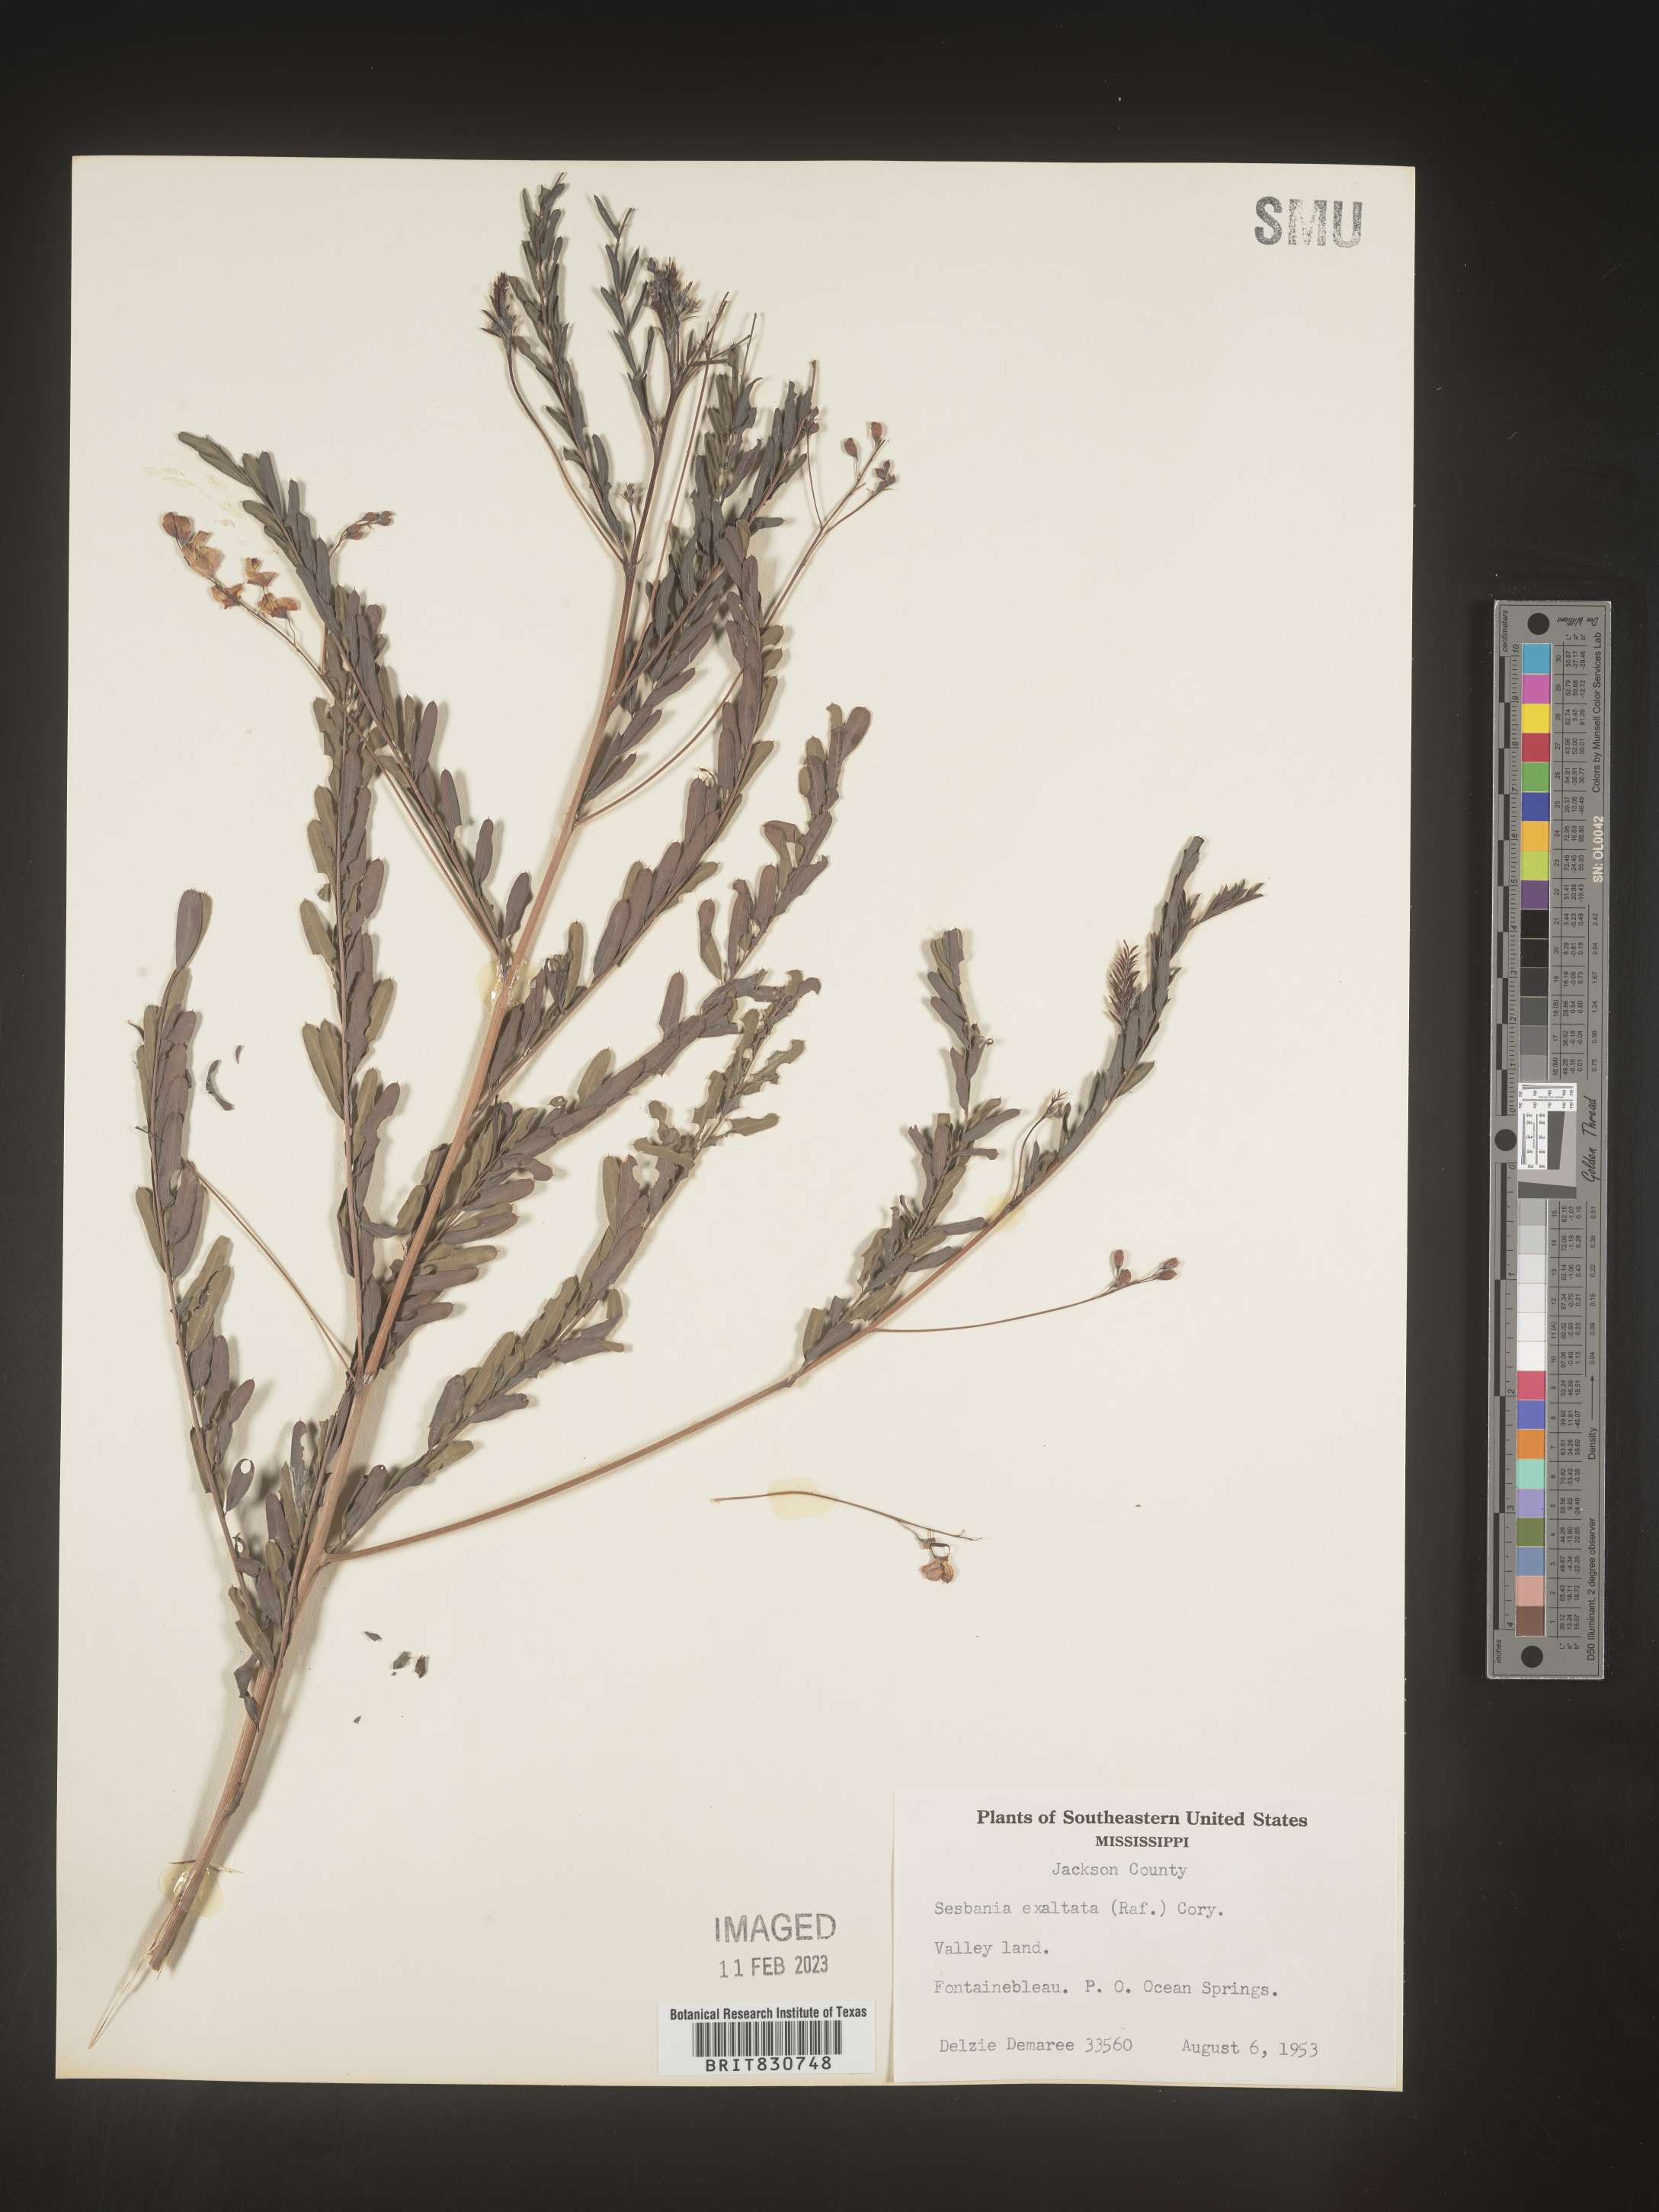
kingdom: Plantae
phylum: Tracheophyta
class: Magnoliopsida
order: Fabales
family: Fabaceae
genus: Sesbania
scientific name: Sesbania vesicaria
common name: Bagpod
